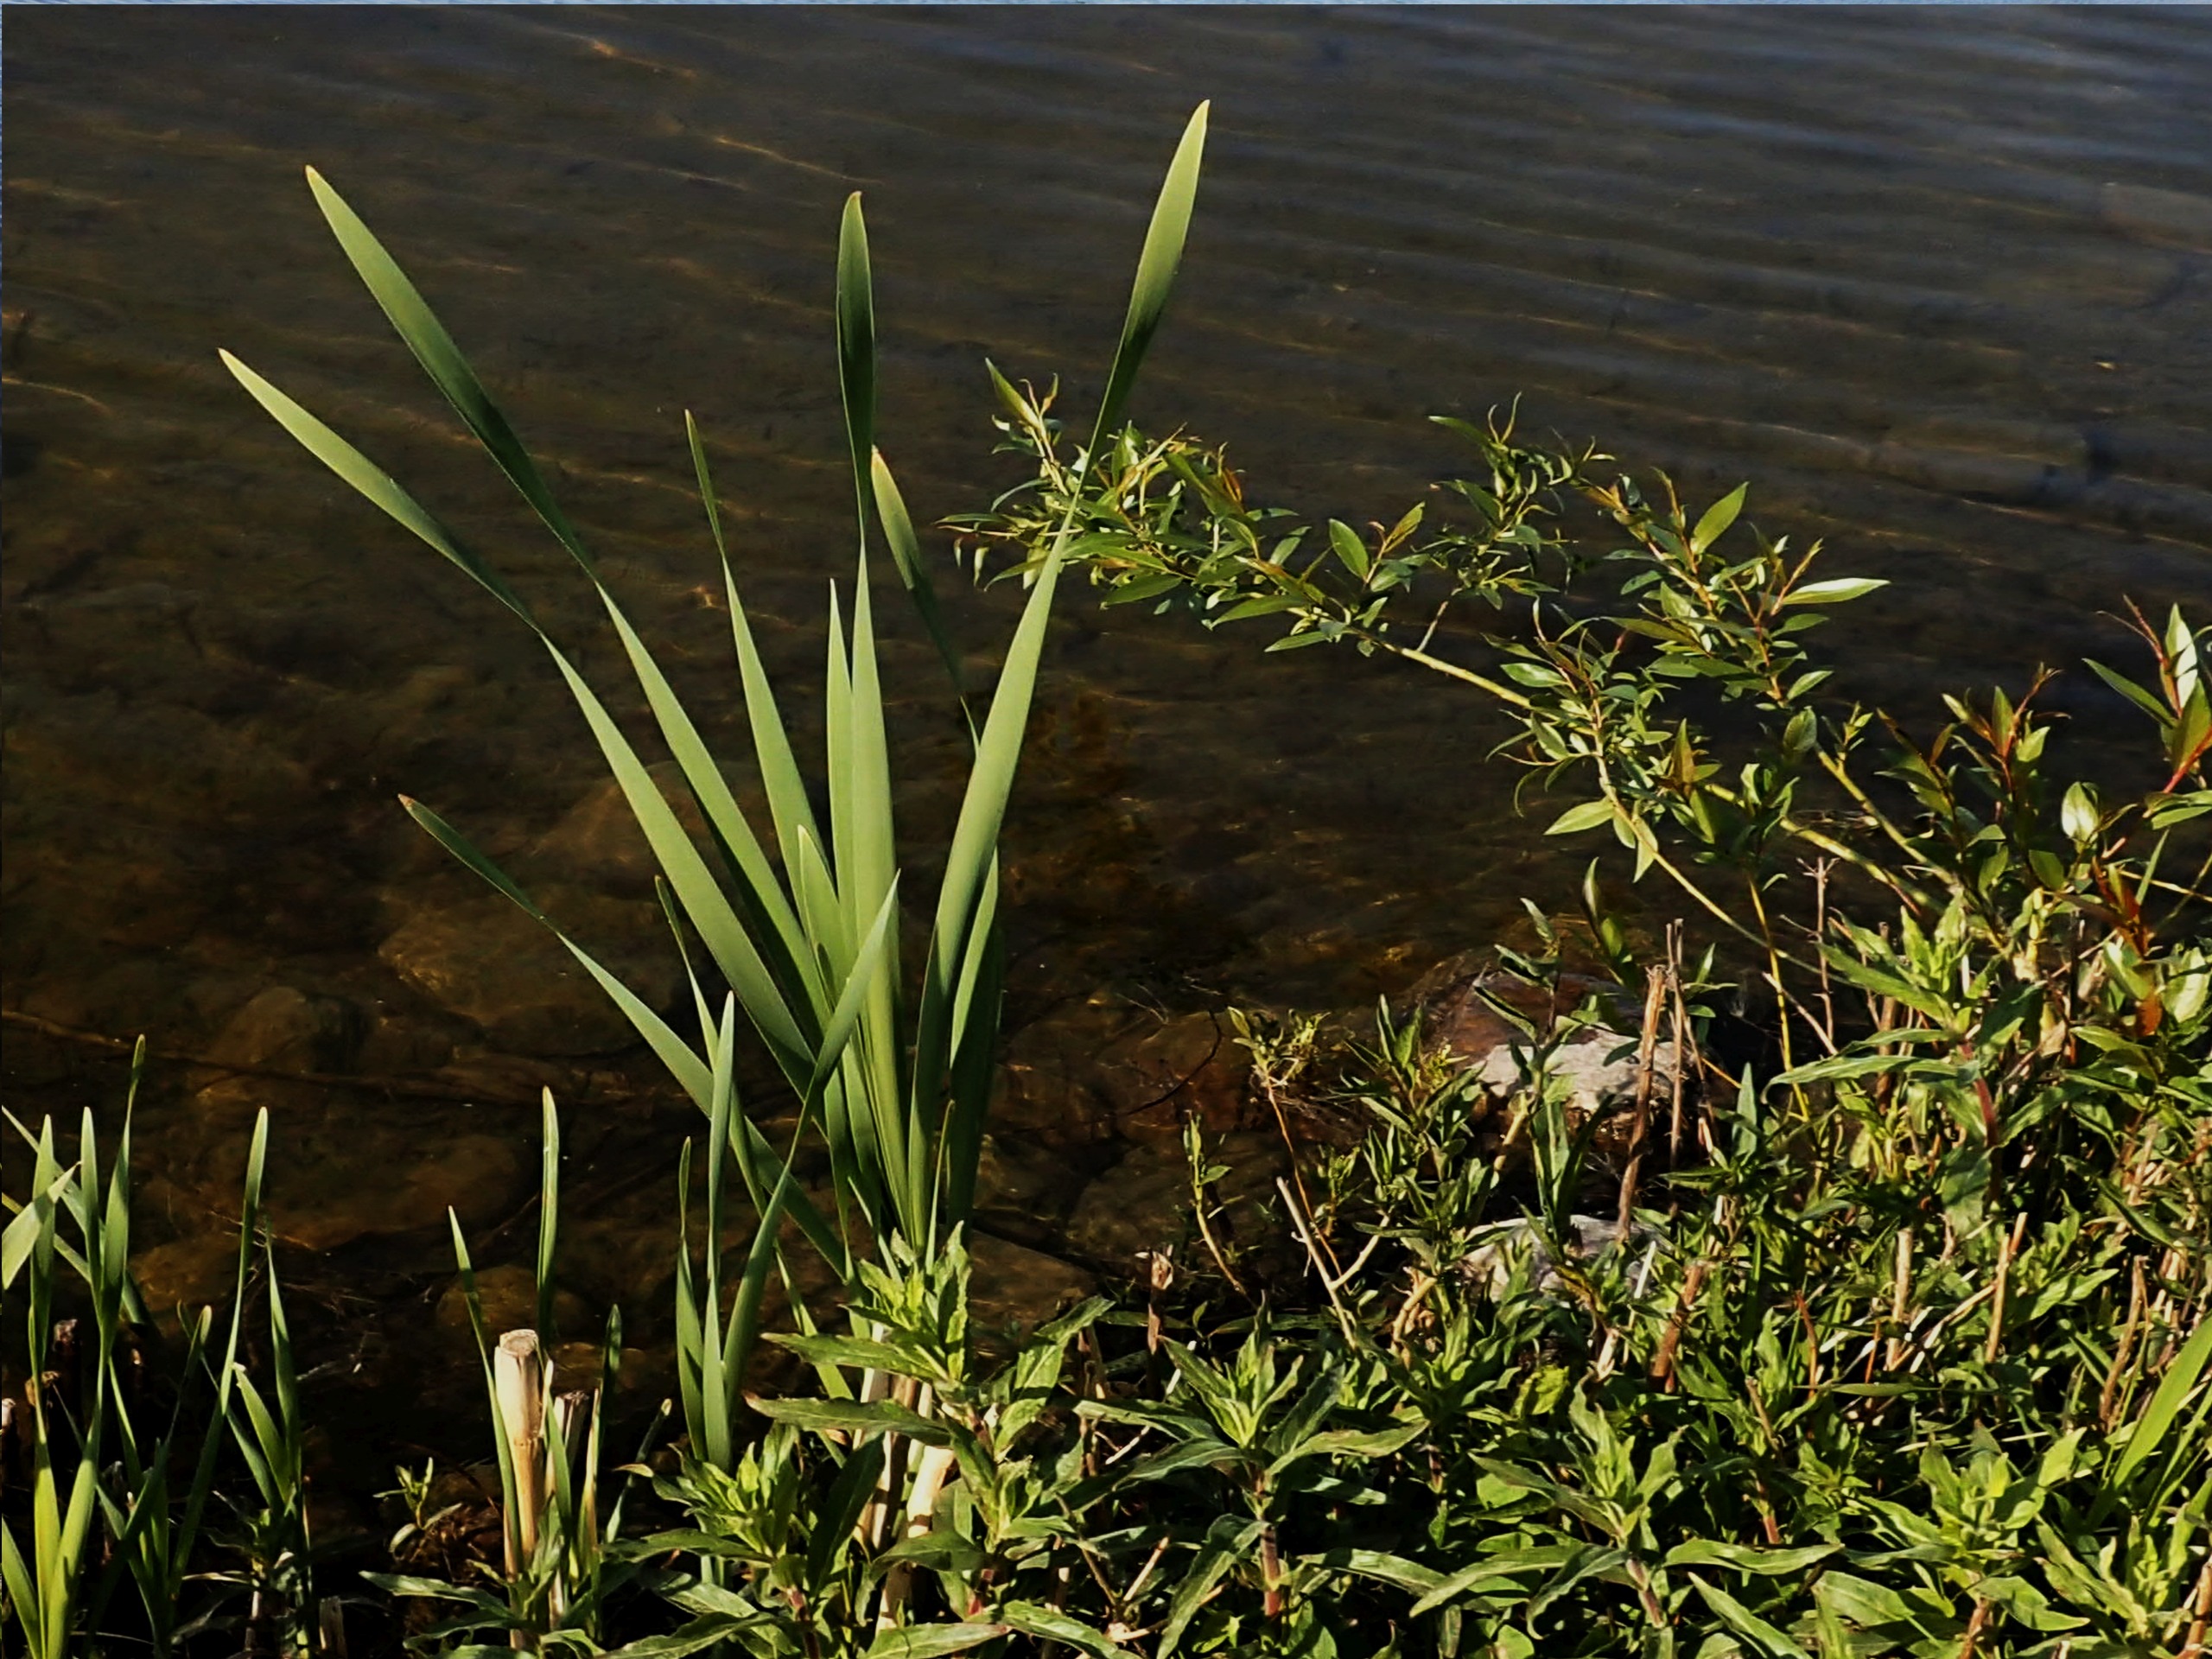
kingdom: Plantae
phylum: Tracheophyta
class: Liliopsida
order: Poales
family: Typhaceae
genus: Typha
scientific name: Typha latifolia
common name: Bredbladet dunhammer
